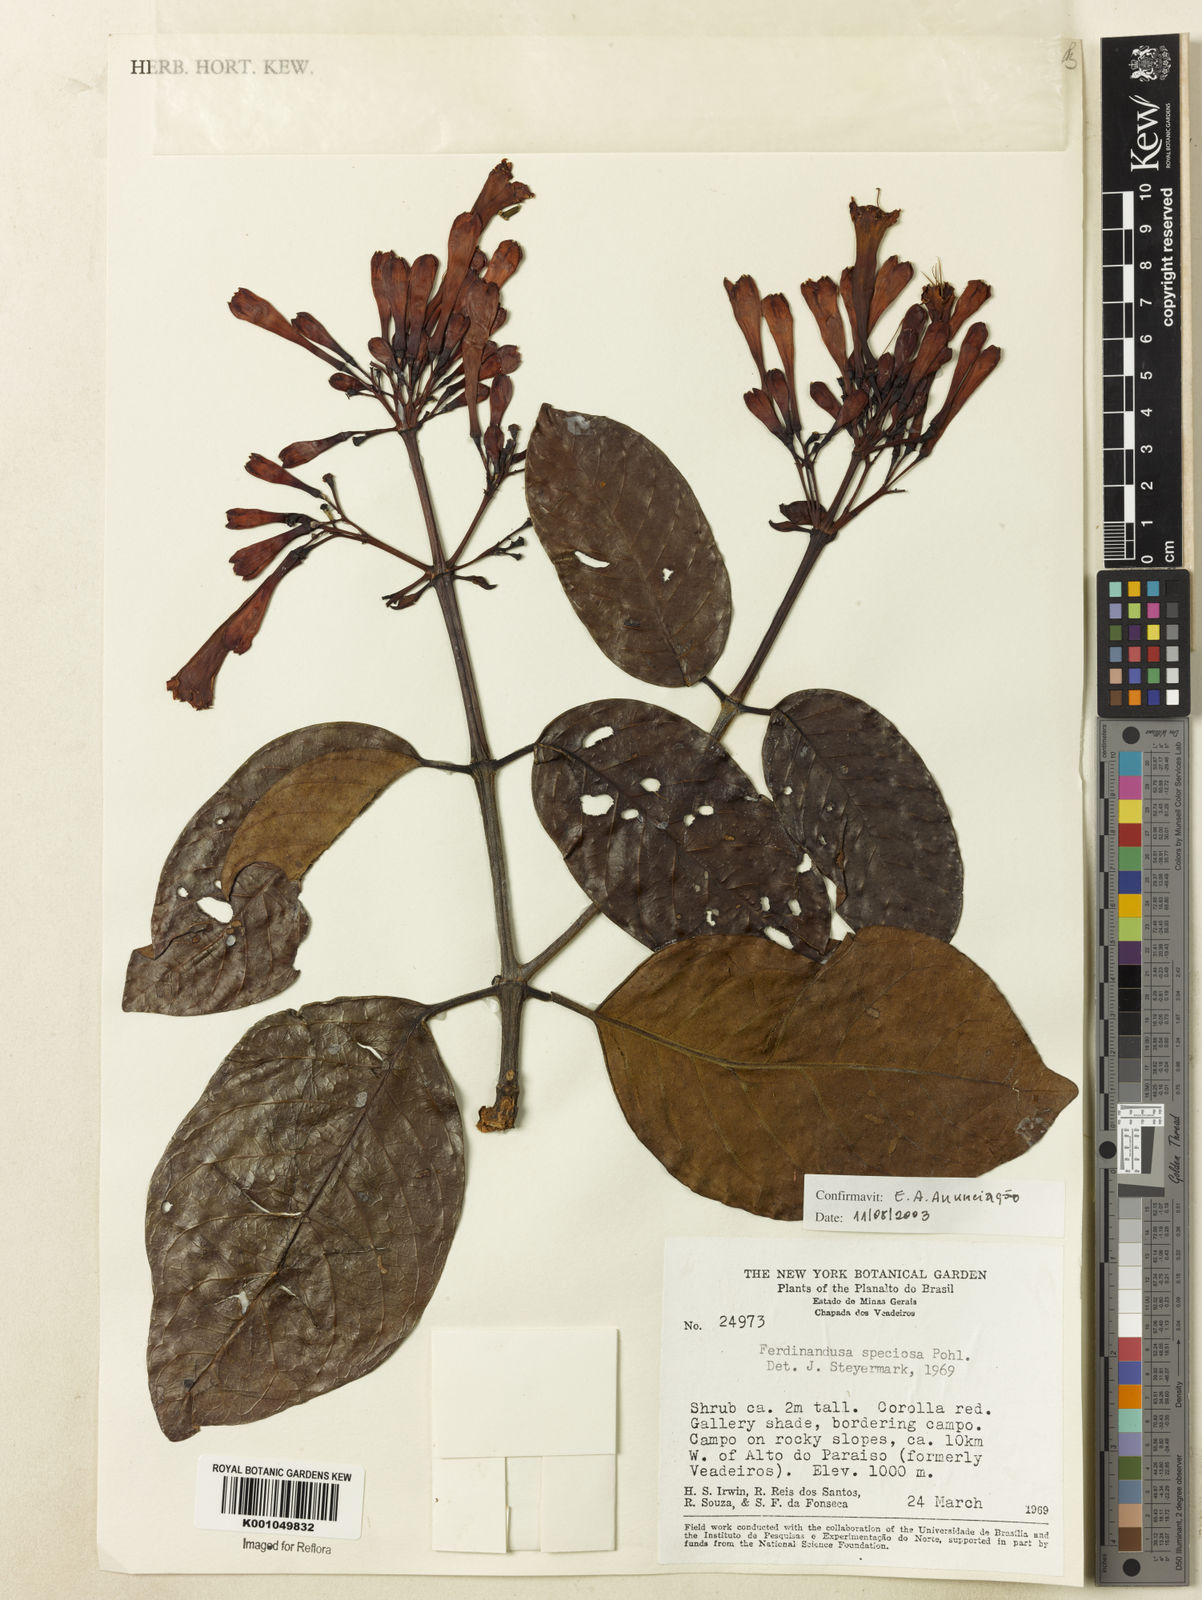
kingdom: Plantae
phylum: Tracheophyta
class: Magnoliopsida
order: Gentianales
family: Rubiaceae
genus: Ferdinandusa
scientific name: Ferdinandusa speciosa
